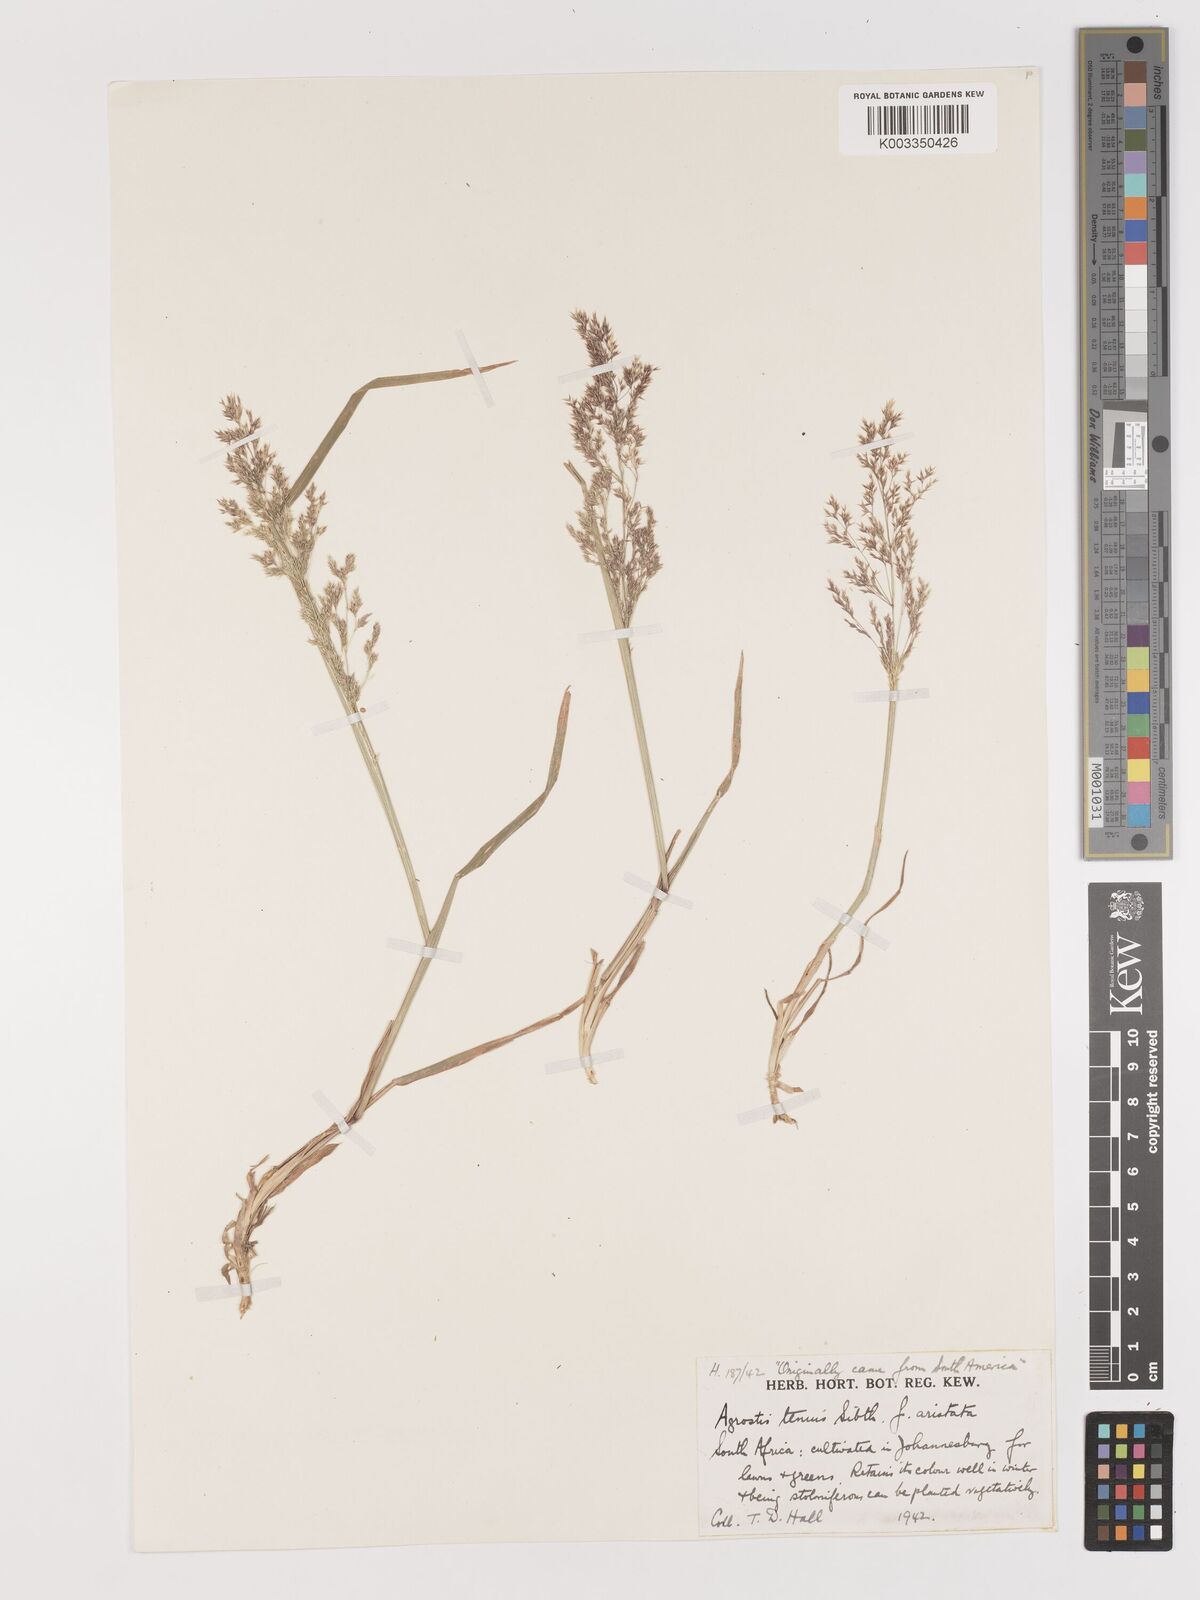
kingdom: Plantae
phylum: Tracheophyta
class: Liliopsida
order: Poales
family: Poaceae
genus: Agrostis
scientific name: Agrostis capillaris
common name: Colonial bentgrass
